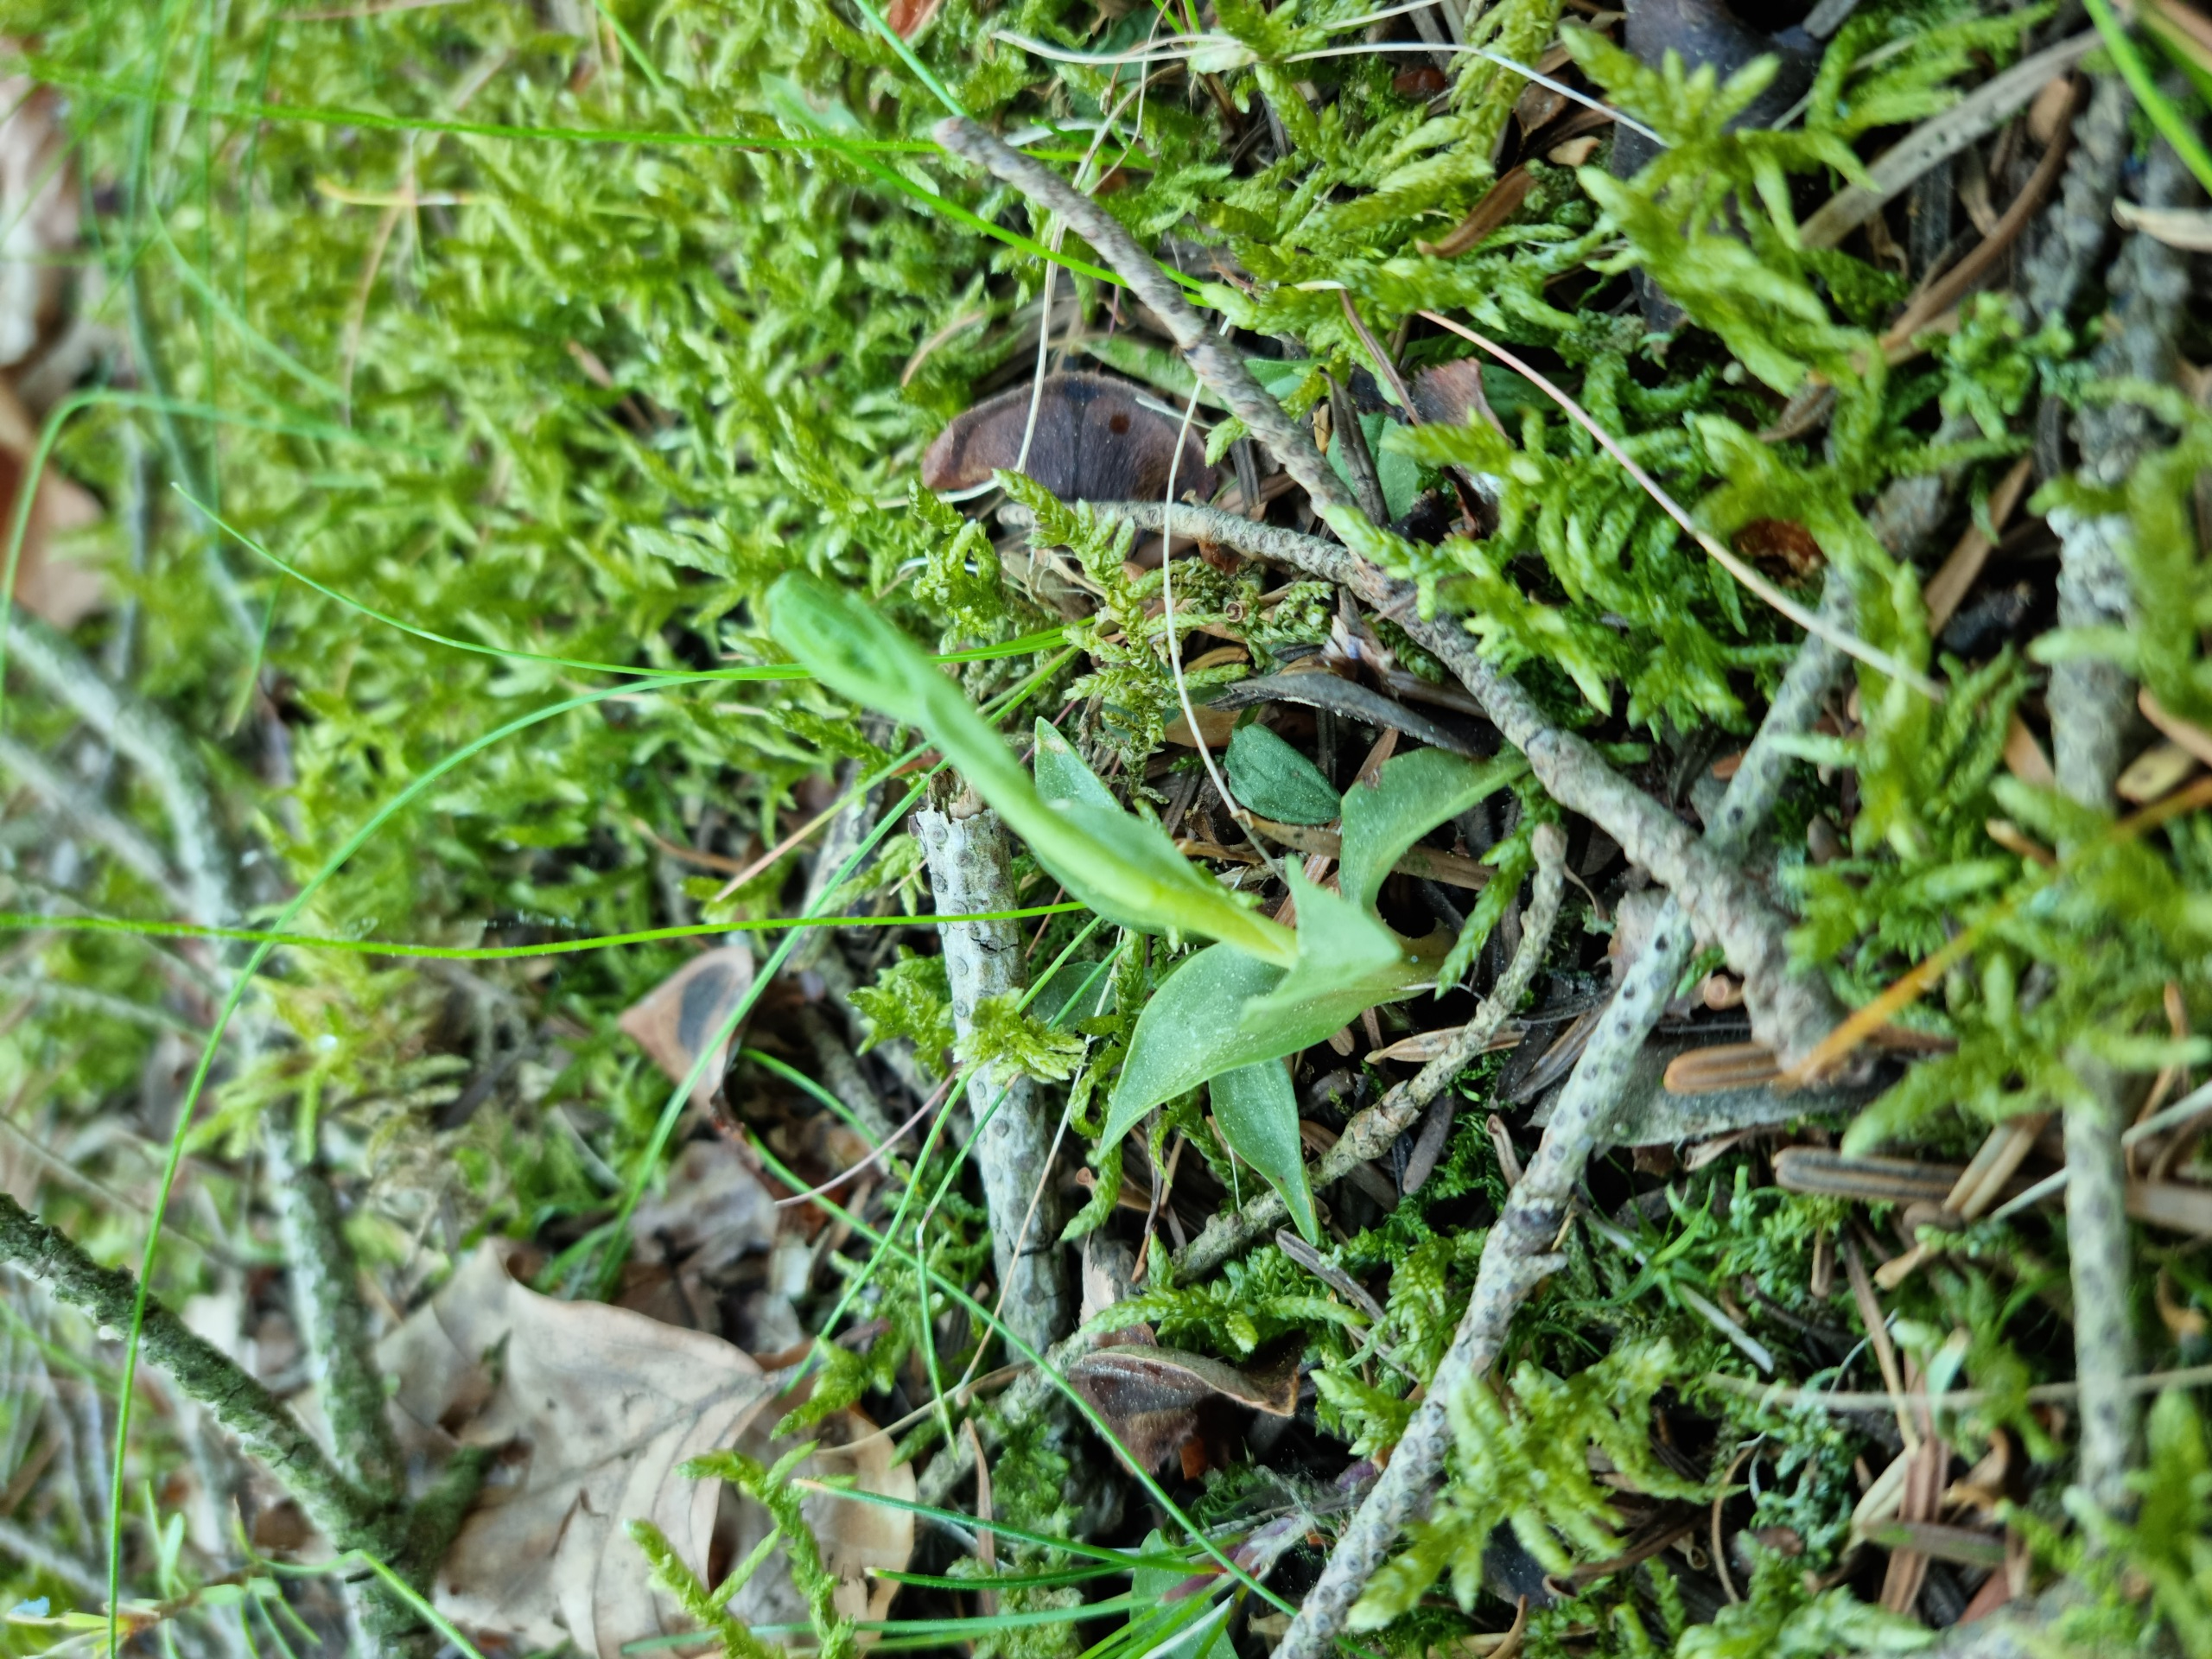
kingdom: Plantae
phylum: Tracheophyta
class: Liliopsida
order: Asparagales
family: Orchidaceae
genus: Goodyera
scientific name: Goodyera repens
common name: Knærod
